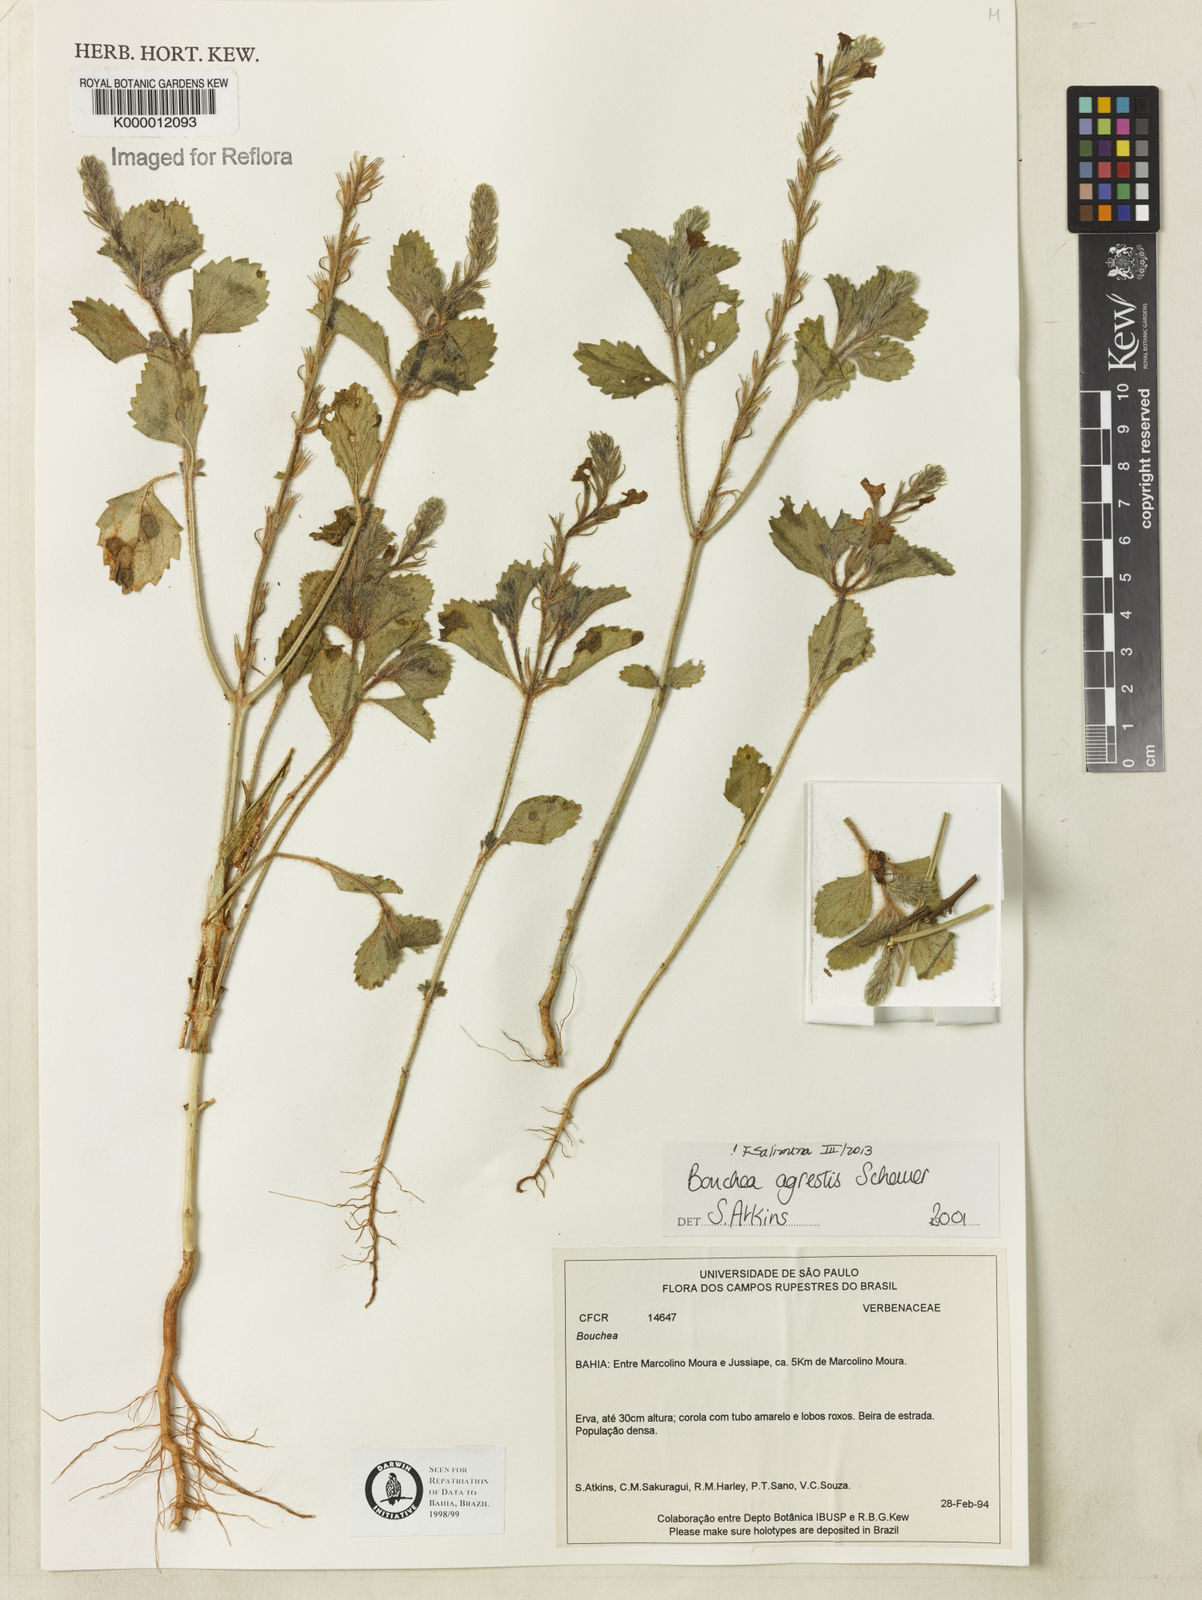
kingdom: Plantae
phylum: Tracheophyta
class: Magnoliopsida
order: Lamiales
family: Verbenaceae
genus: Bouchea
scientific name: Bouchea agrestis
